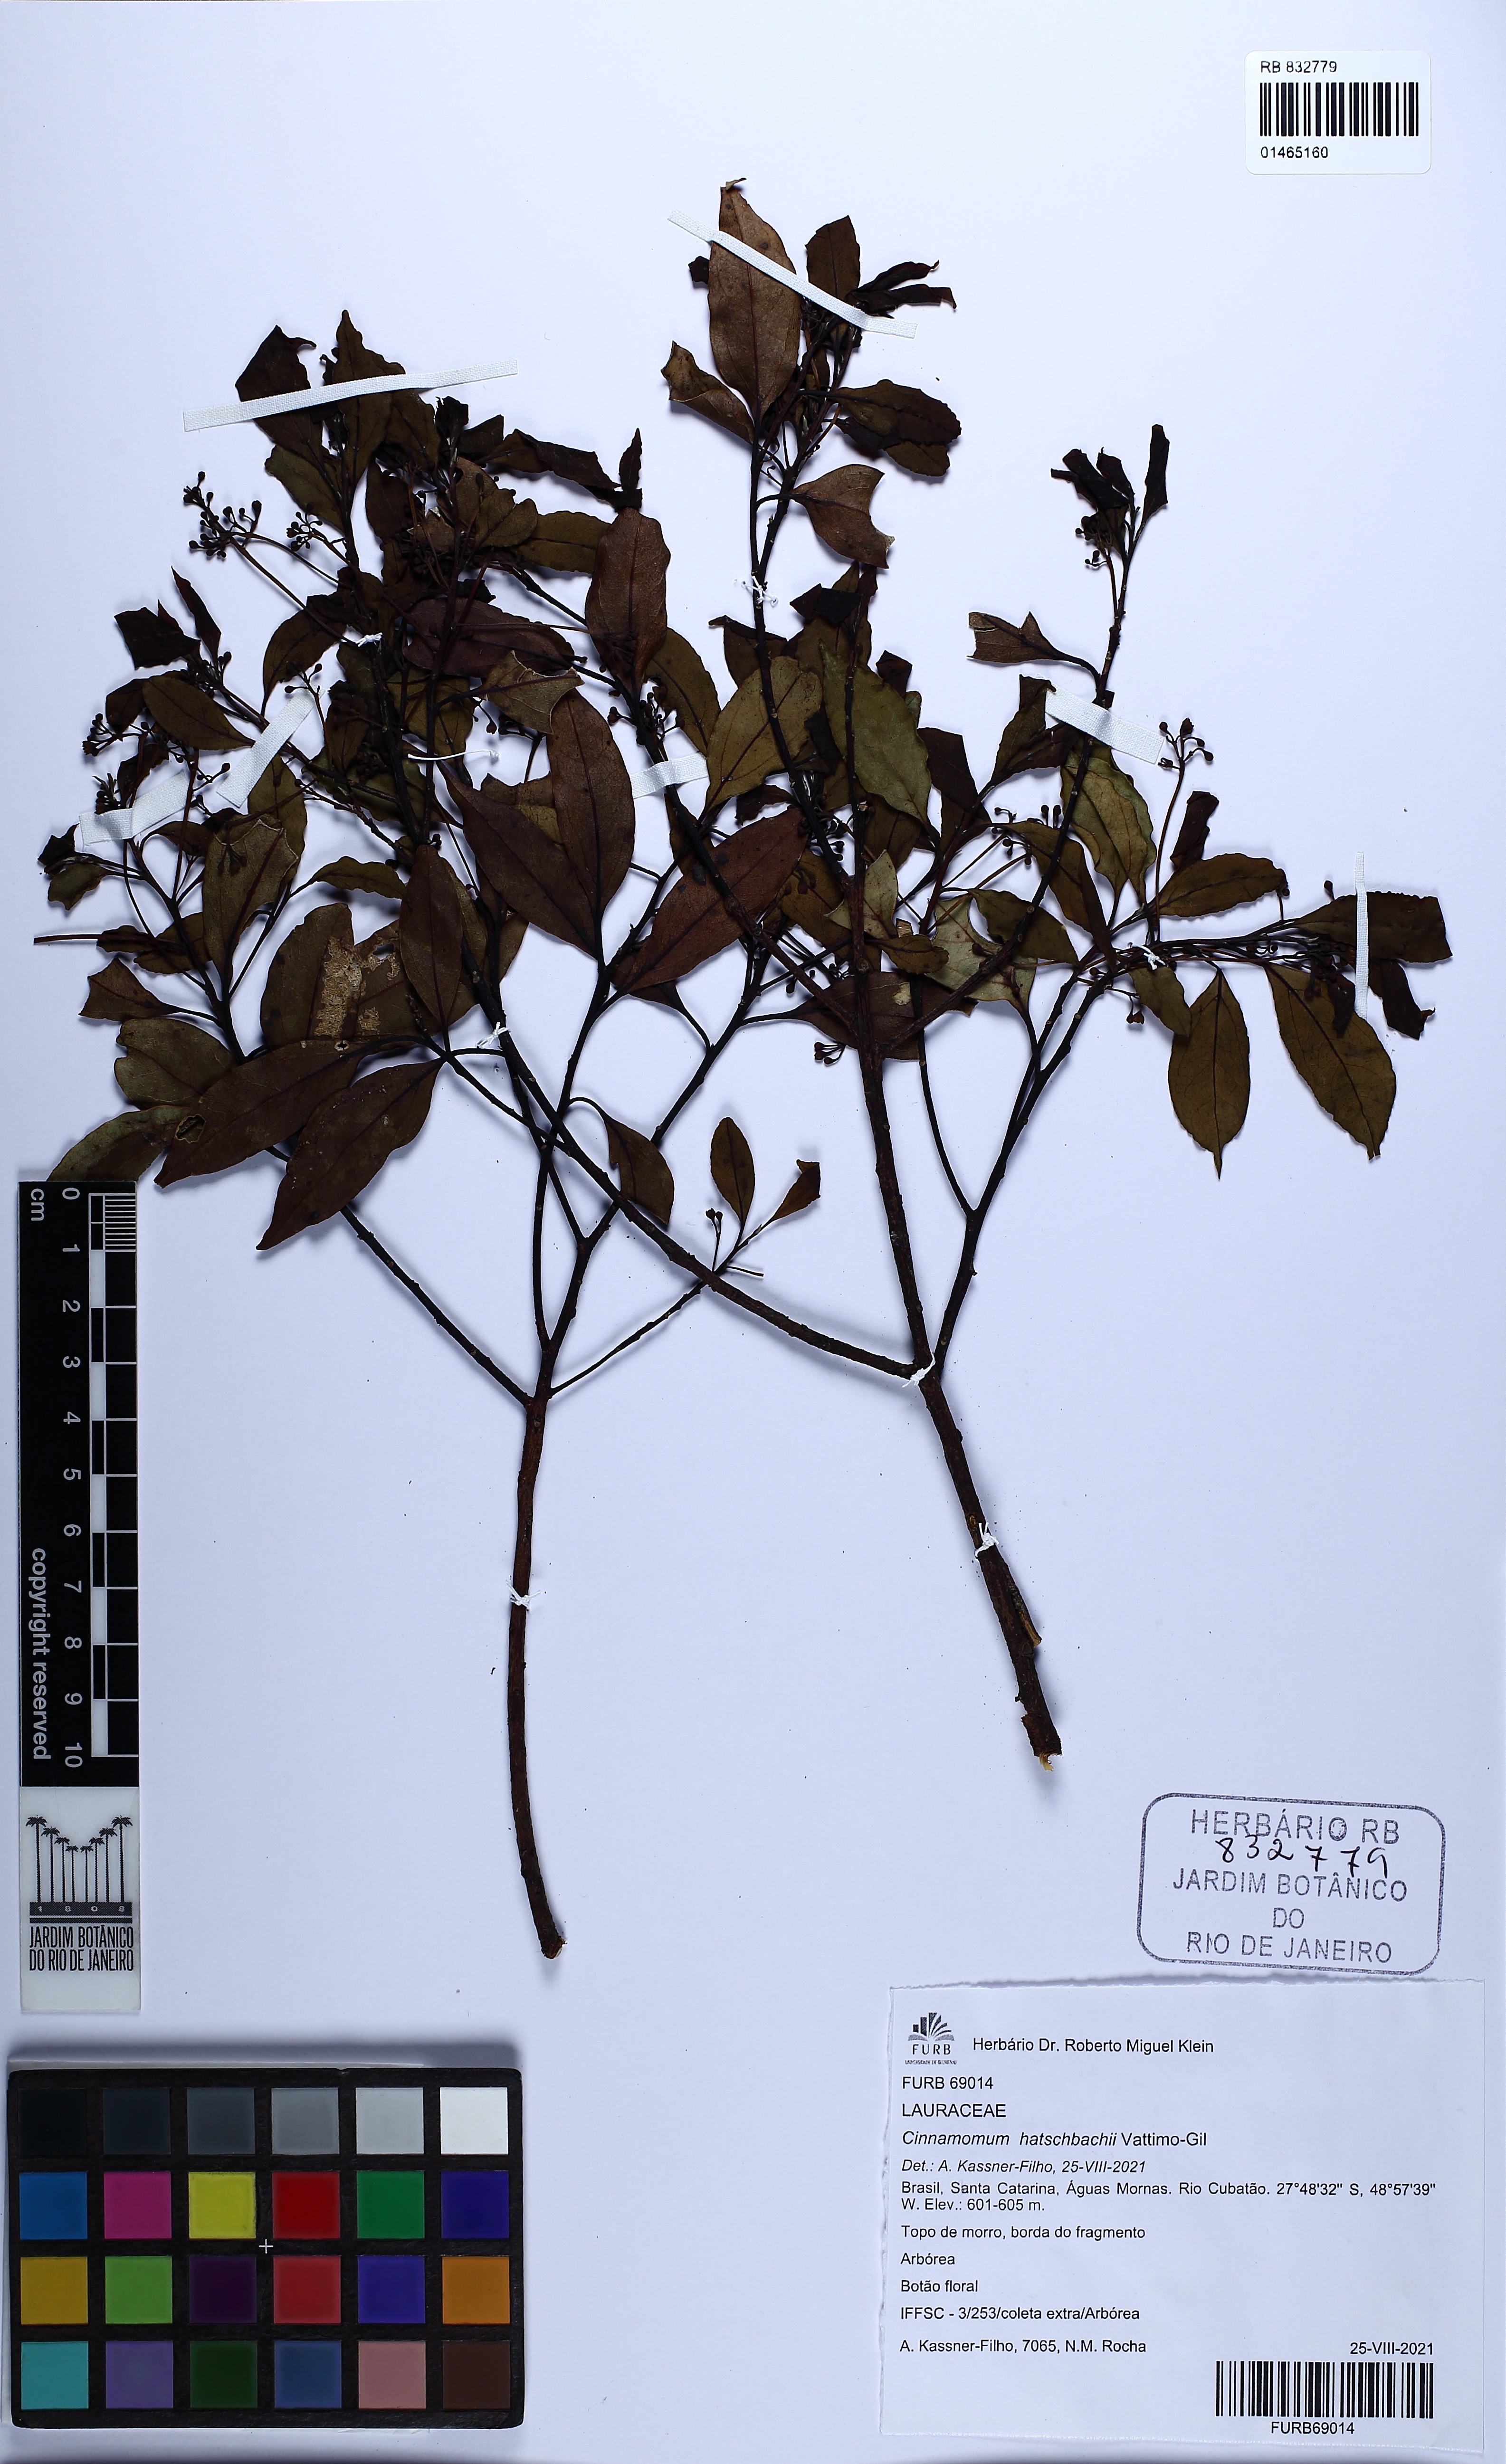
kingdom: Plantae
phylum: Tracheophyta
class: Magnoliopsida
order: Laurales
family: Lauraceae
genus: Aiouea
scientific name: Aiouea hatschbachii
